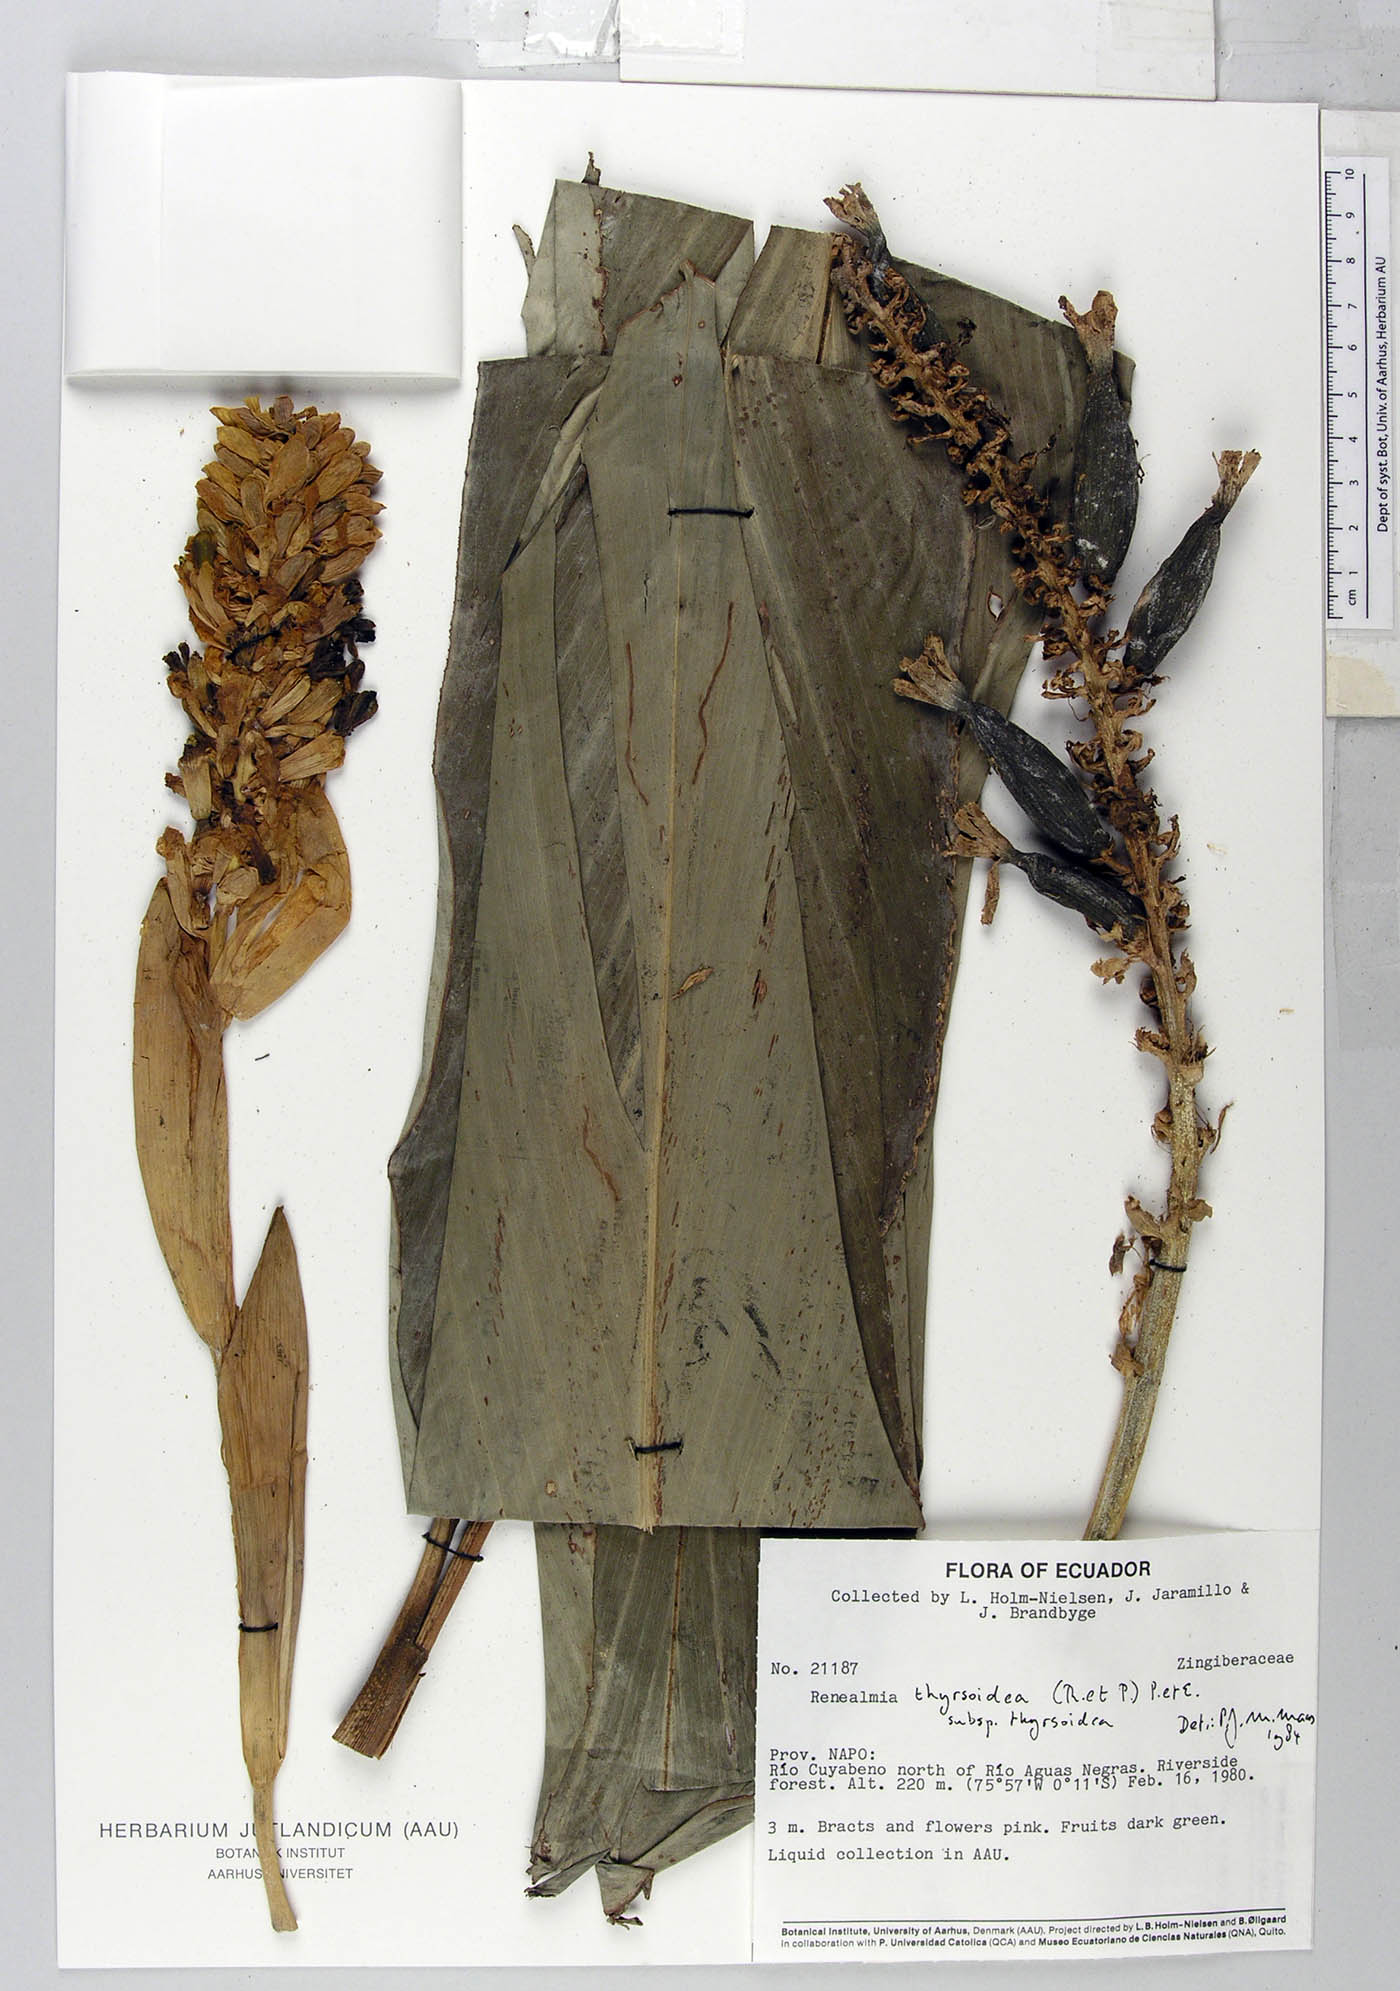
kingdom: Plantae
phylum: Tracheophyta
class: Liliopsida
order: Zingiberales
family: Zingiberaceae
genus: Renealmia
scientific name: Renealmia thyrsoidea
